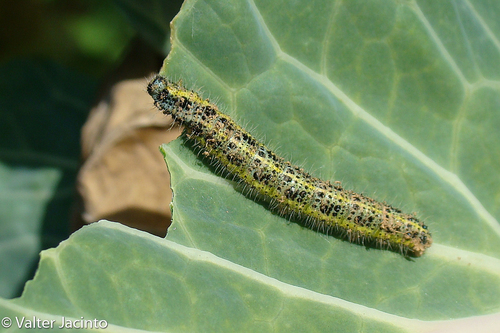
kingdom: Animalia
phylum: Arthropoda
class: Insecta
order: Lepidoptera
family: Pieridae
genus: Pieris
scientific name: Pieris brassicae
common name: Large white
